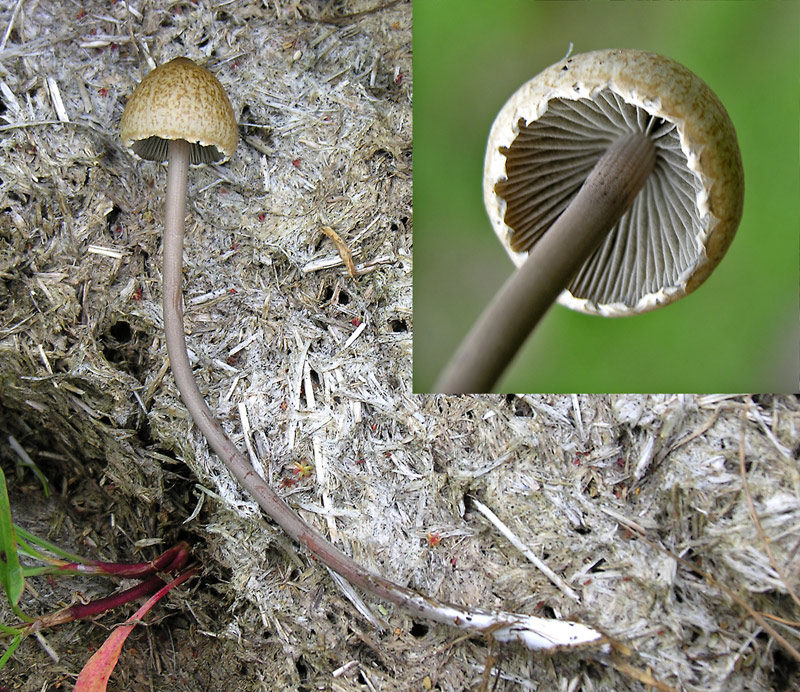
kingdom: Fungi
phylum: Basidiomycota
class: Agaricomycetes
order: Agaricales
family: Bolbitiaceae
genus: Panaeolus
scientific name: Panaeolus papilionaceus
